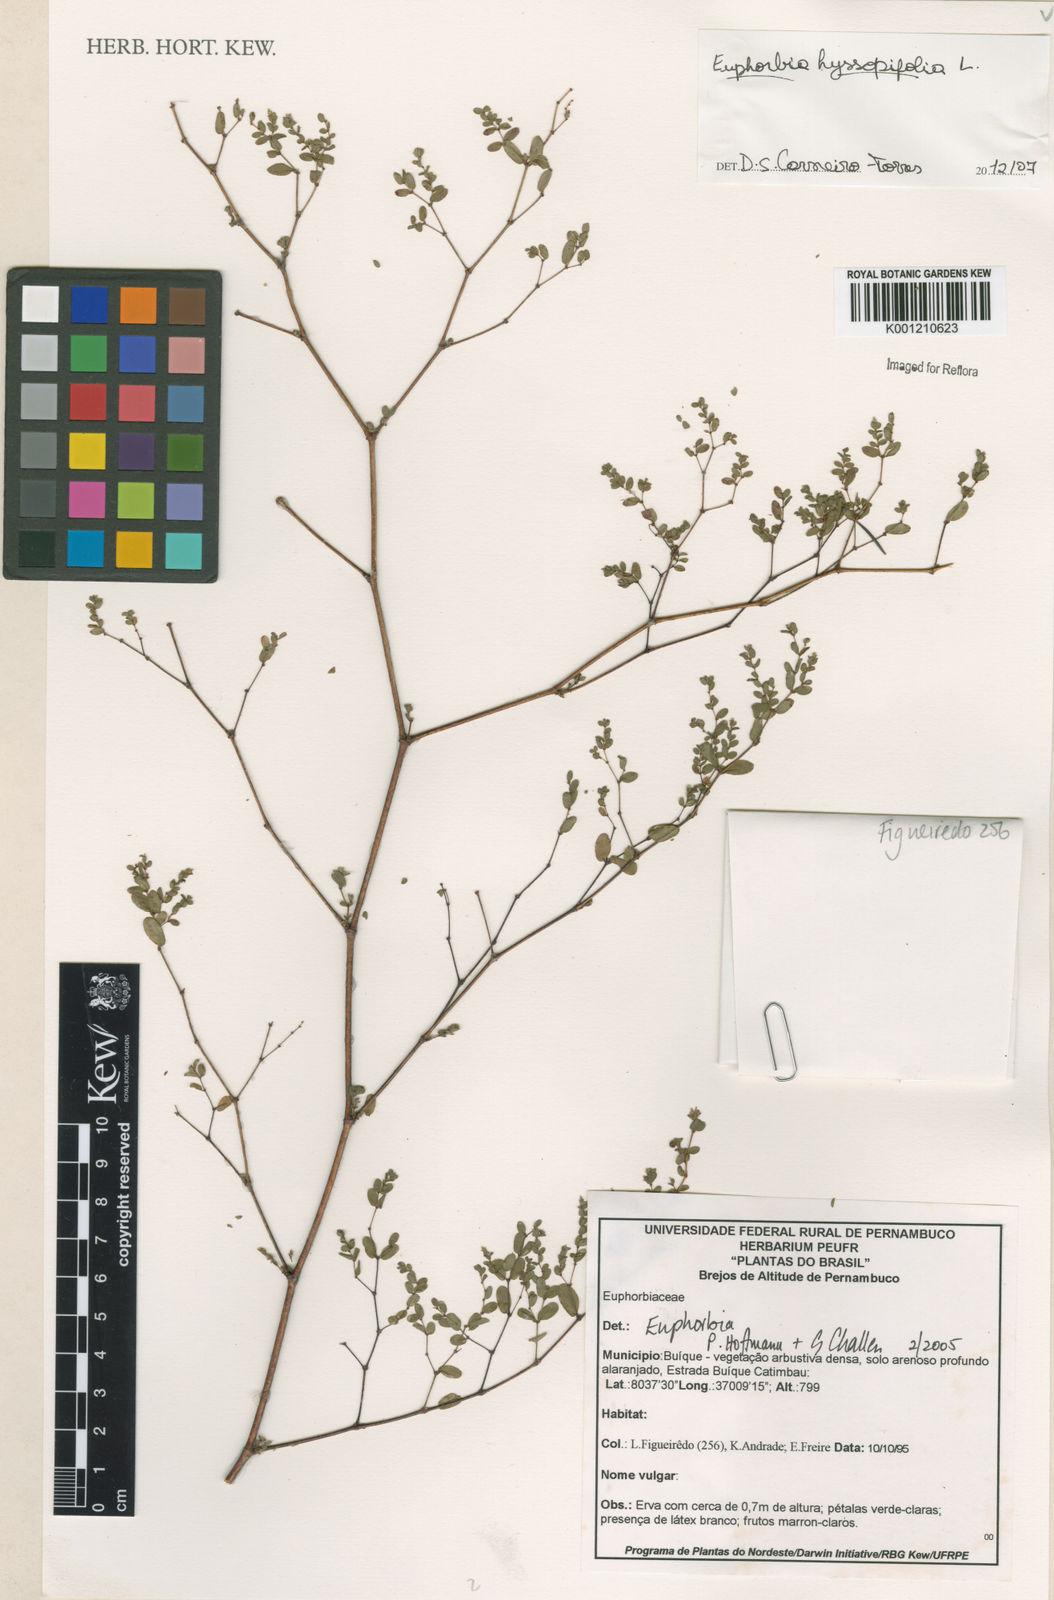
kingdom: Plantae
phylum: Tracheophyta
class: Magnoliopsida
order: Malpighiales
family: Euphorbiaceae
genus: Euphorbia
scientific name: Euphorbia hyssopifolia
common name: Hyssopleaf sandmat
